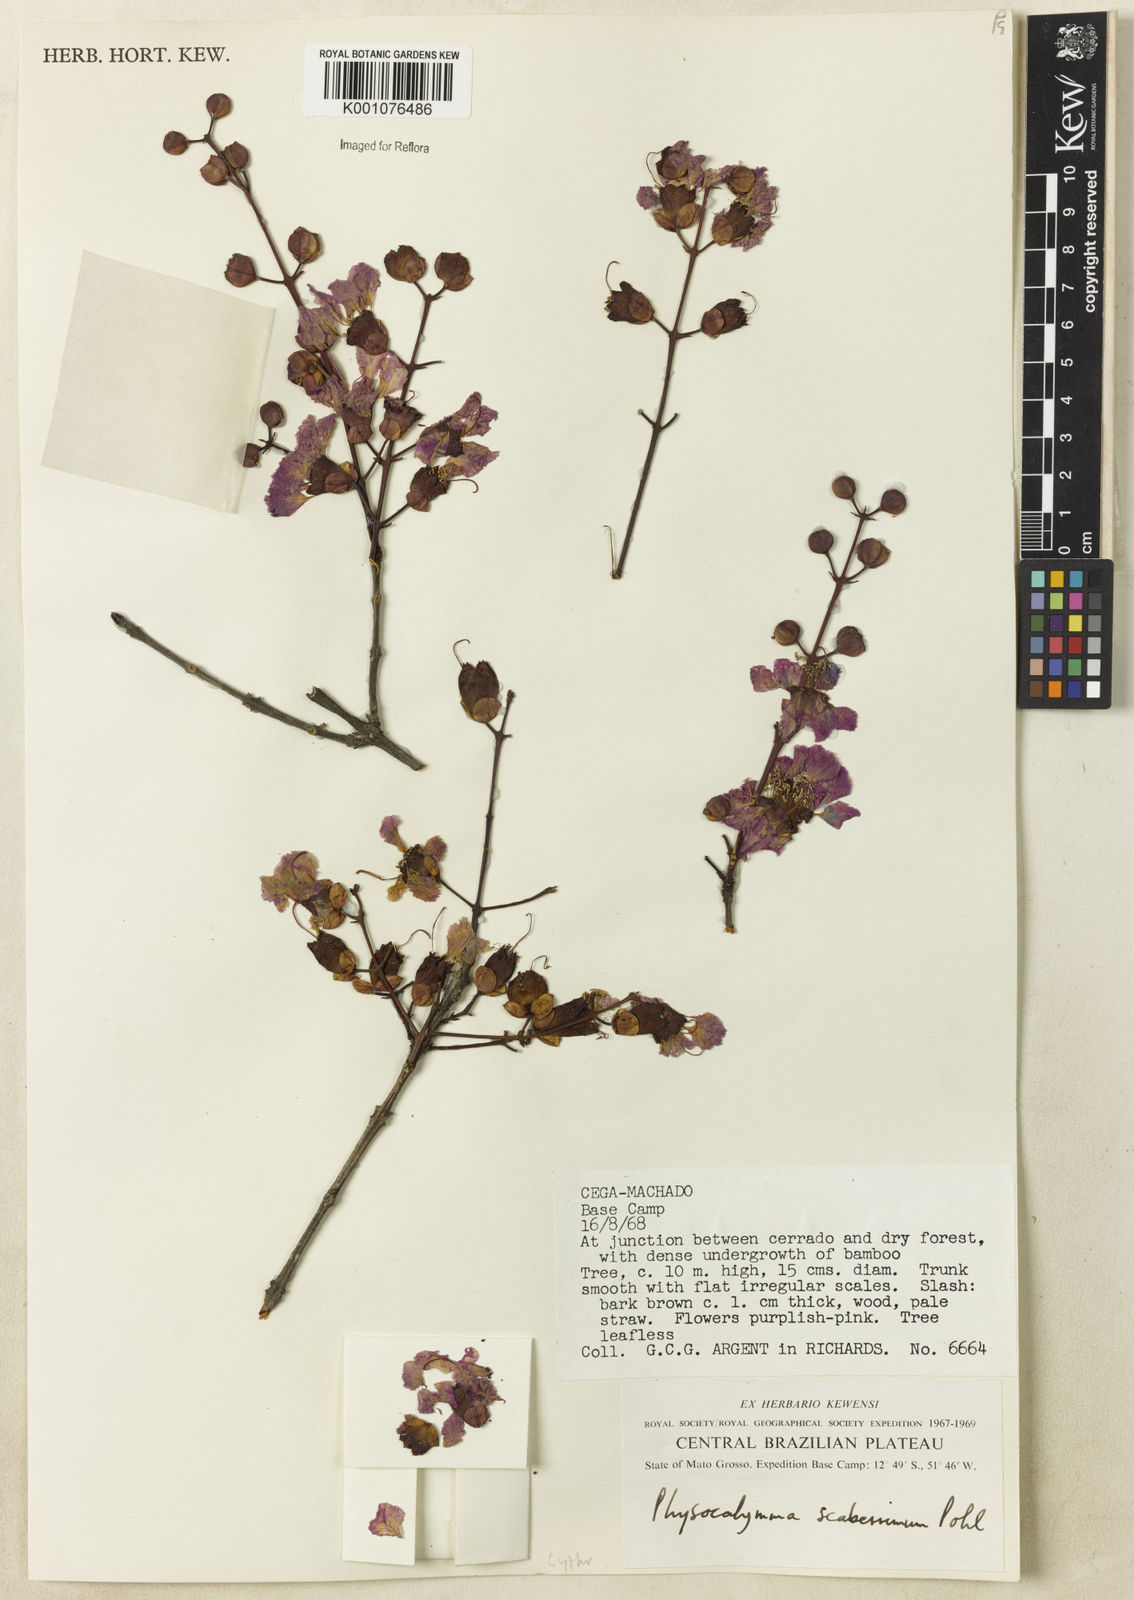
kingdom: Plantae
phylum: Tracheophyta
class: Magnoliopsida
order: Myrtales
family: Lythraceae
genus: Physocalymma
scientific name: Physocalymma scaberrimum
